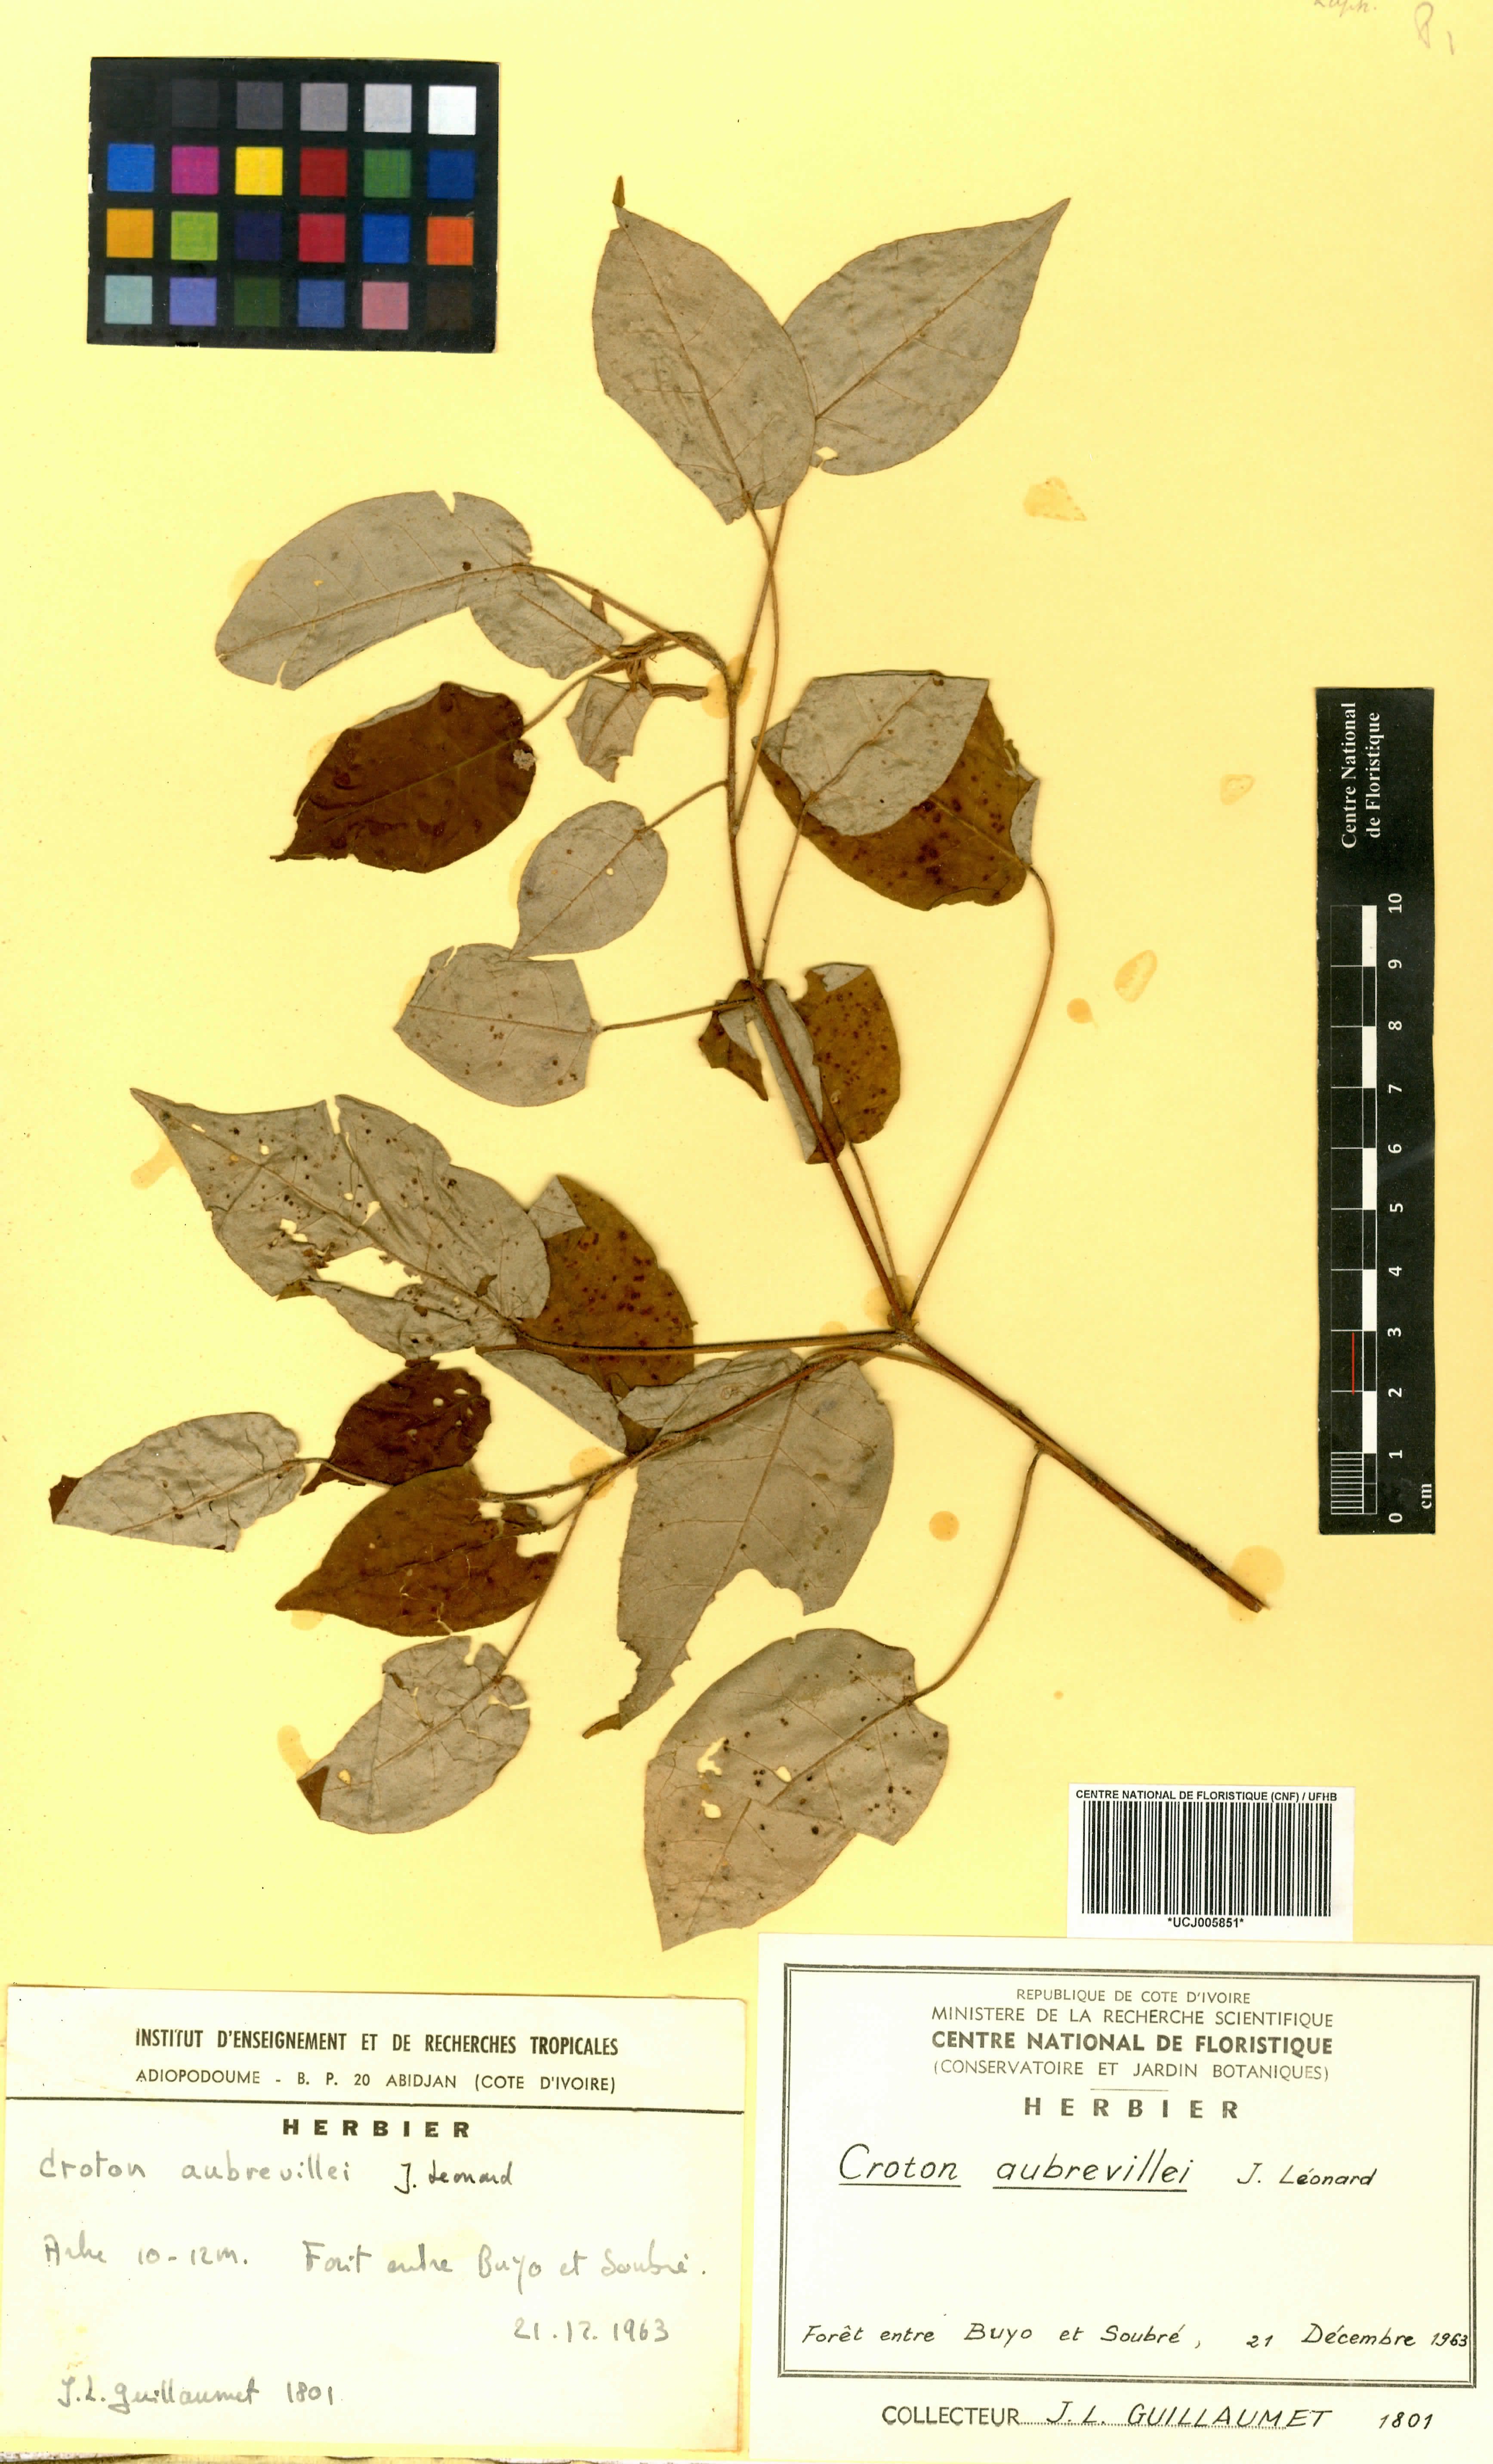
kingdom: Plantae
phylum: Tracheophyta
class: Magnoliopsida
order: Malpighiales
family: Euphorbiaceae
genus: Croton
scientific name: Croton aubrevillei
